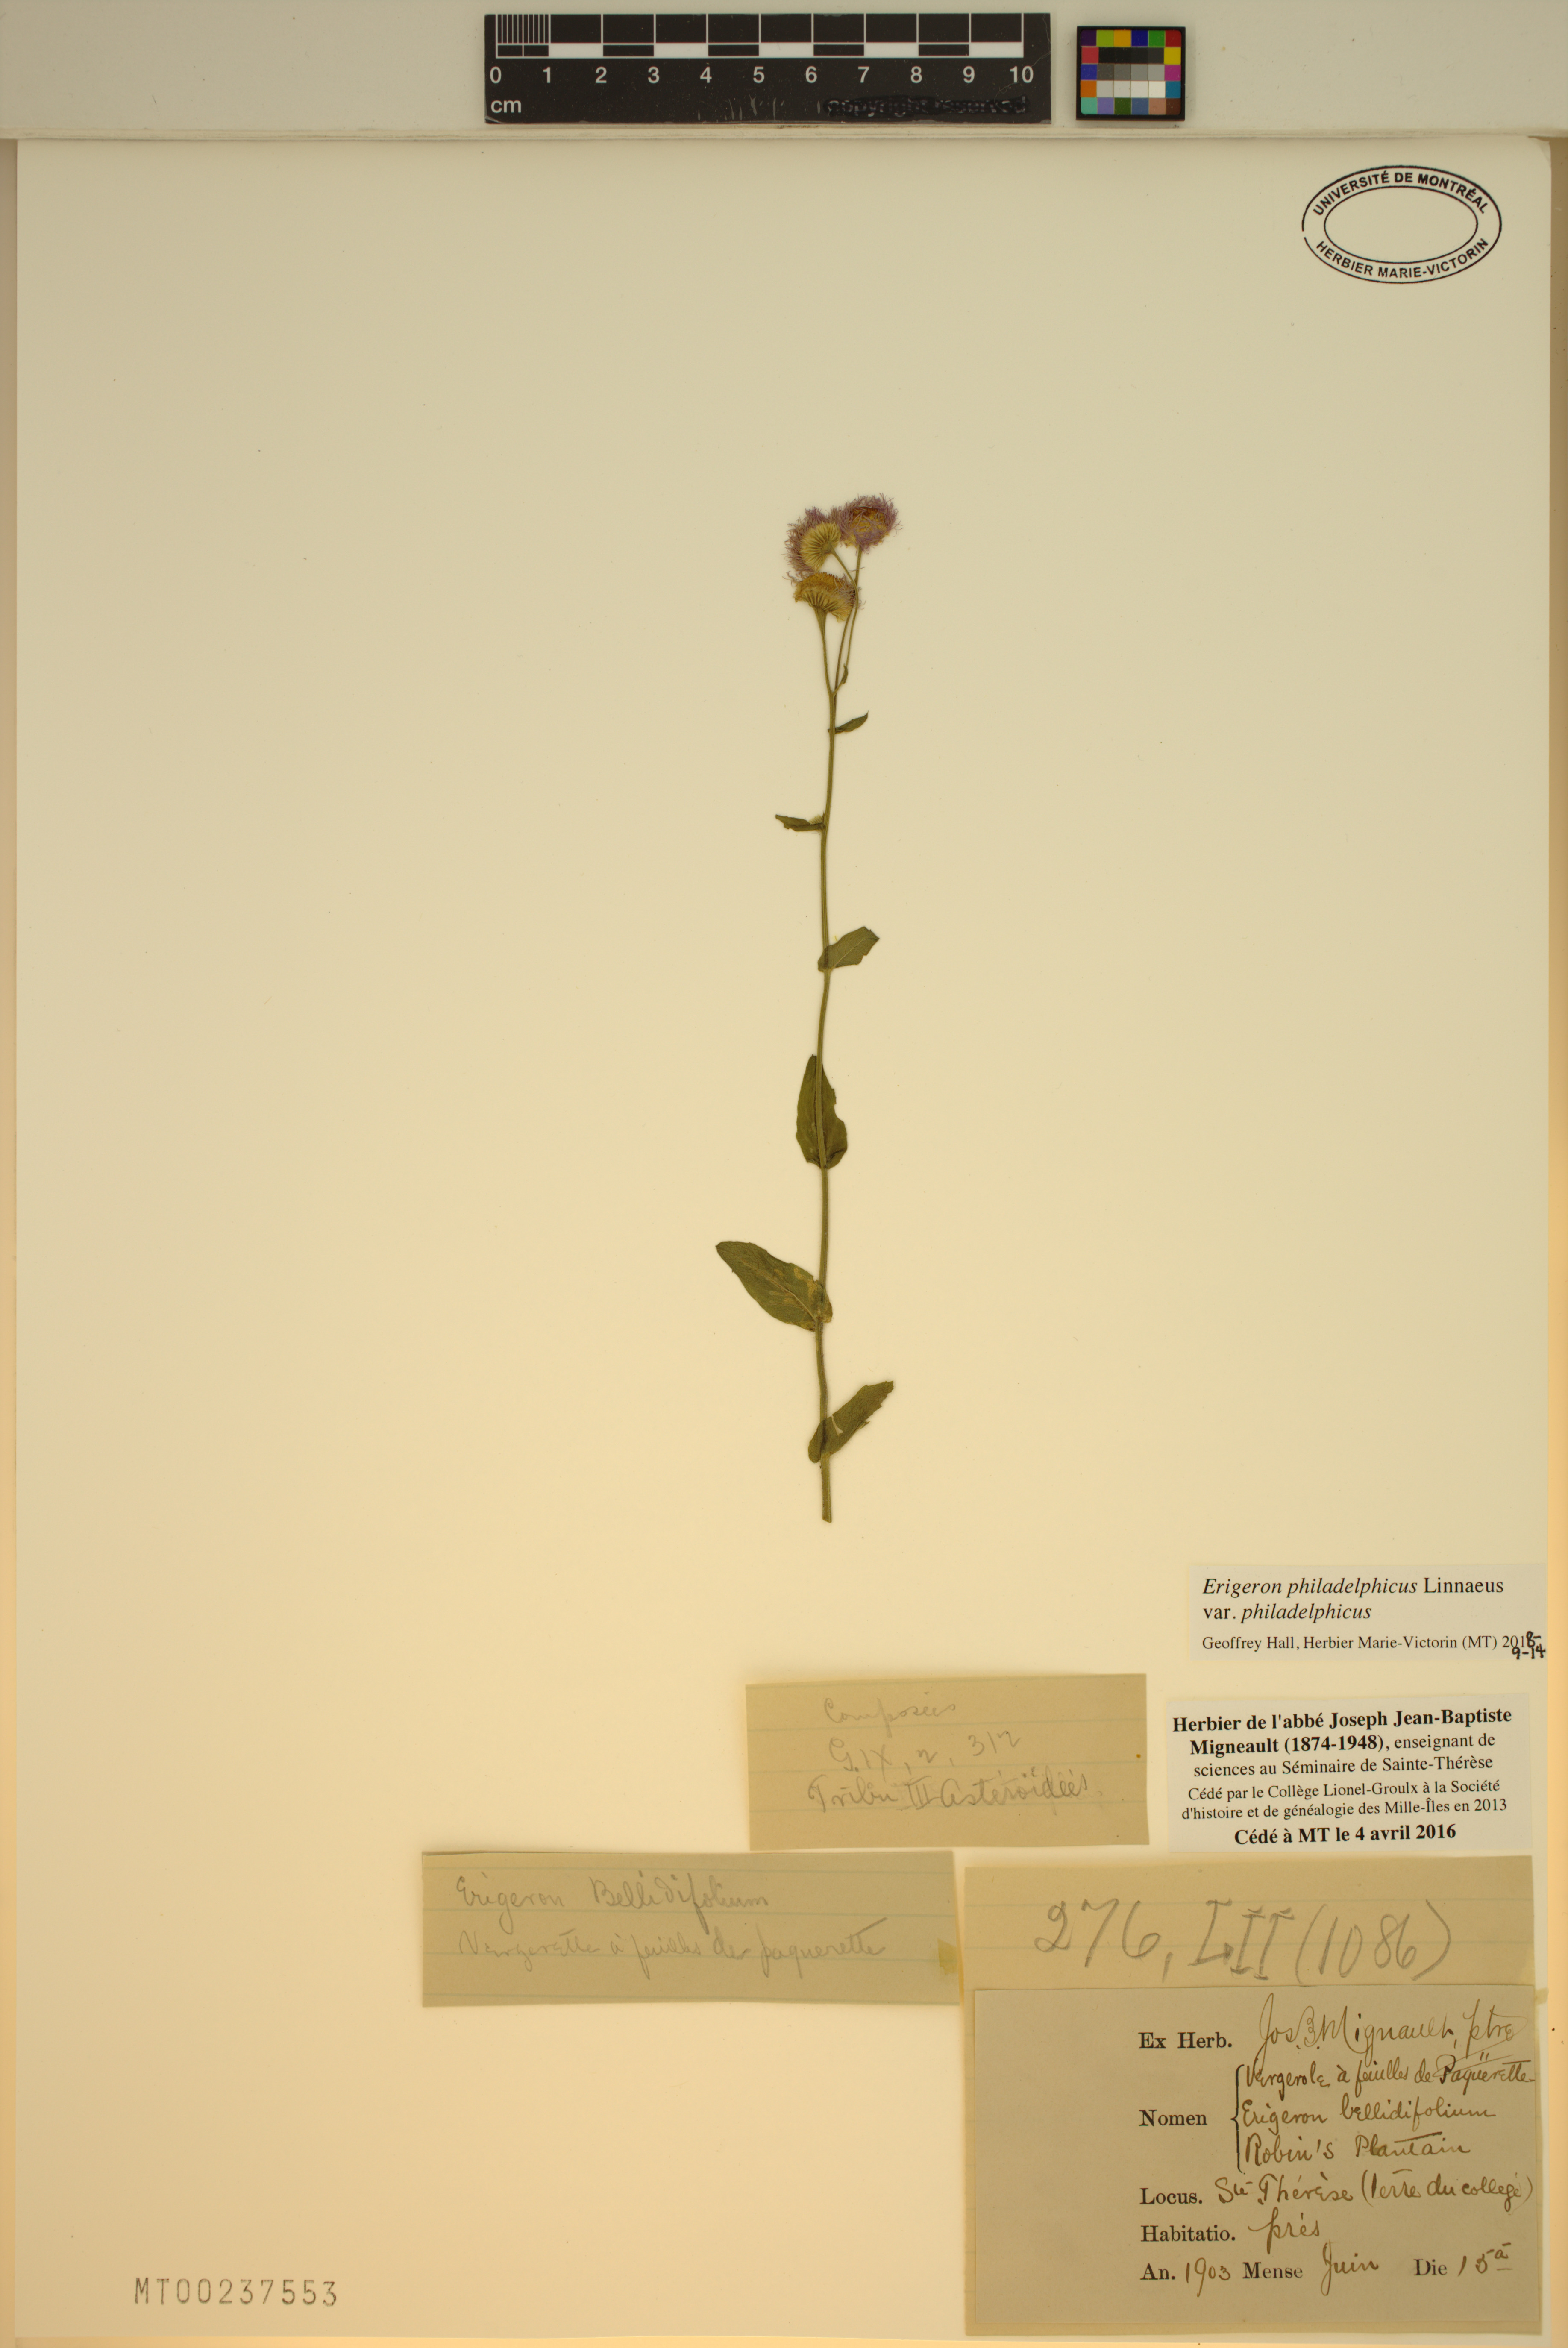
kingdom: Plantae
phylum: Tracheophyta
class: Magnoliopsida
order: Asterales
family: Asteraceae
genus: Erigeron
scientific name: Erigeron philadelphicus
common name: Robin's-plantain
